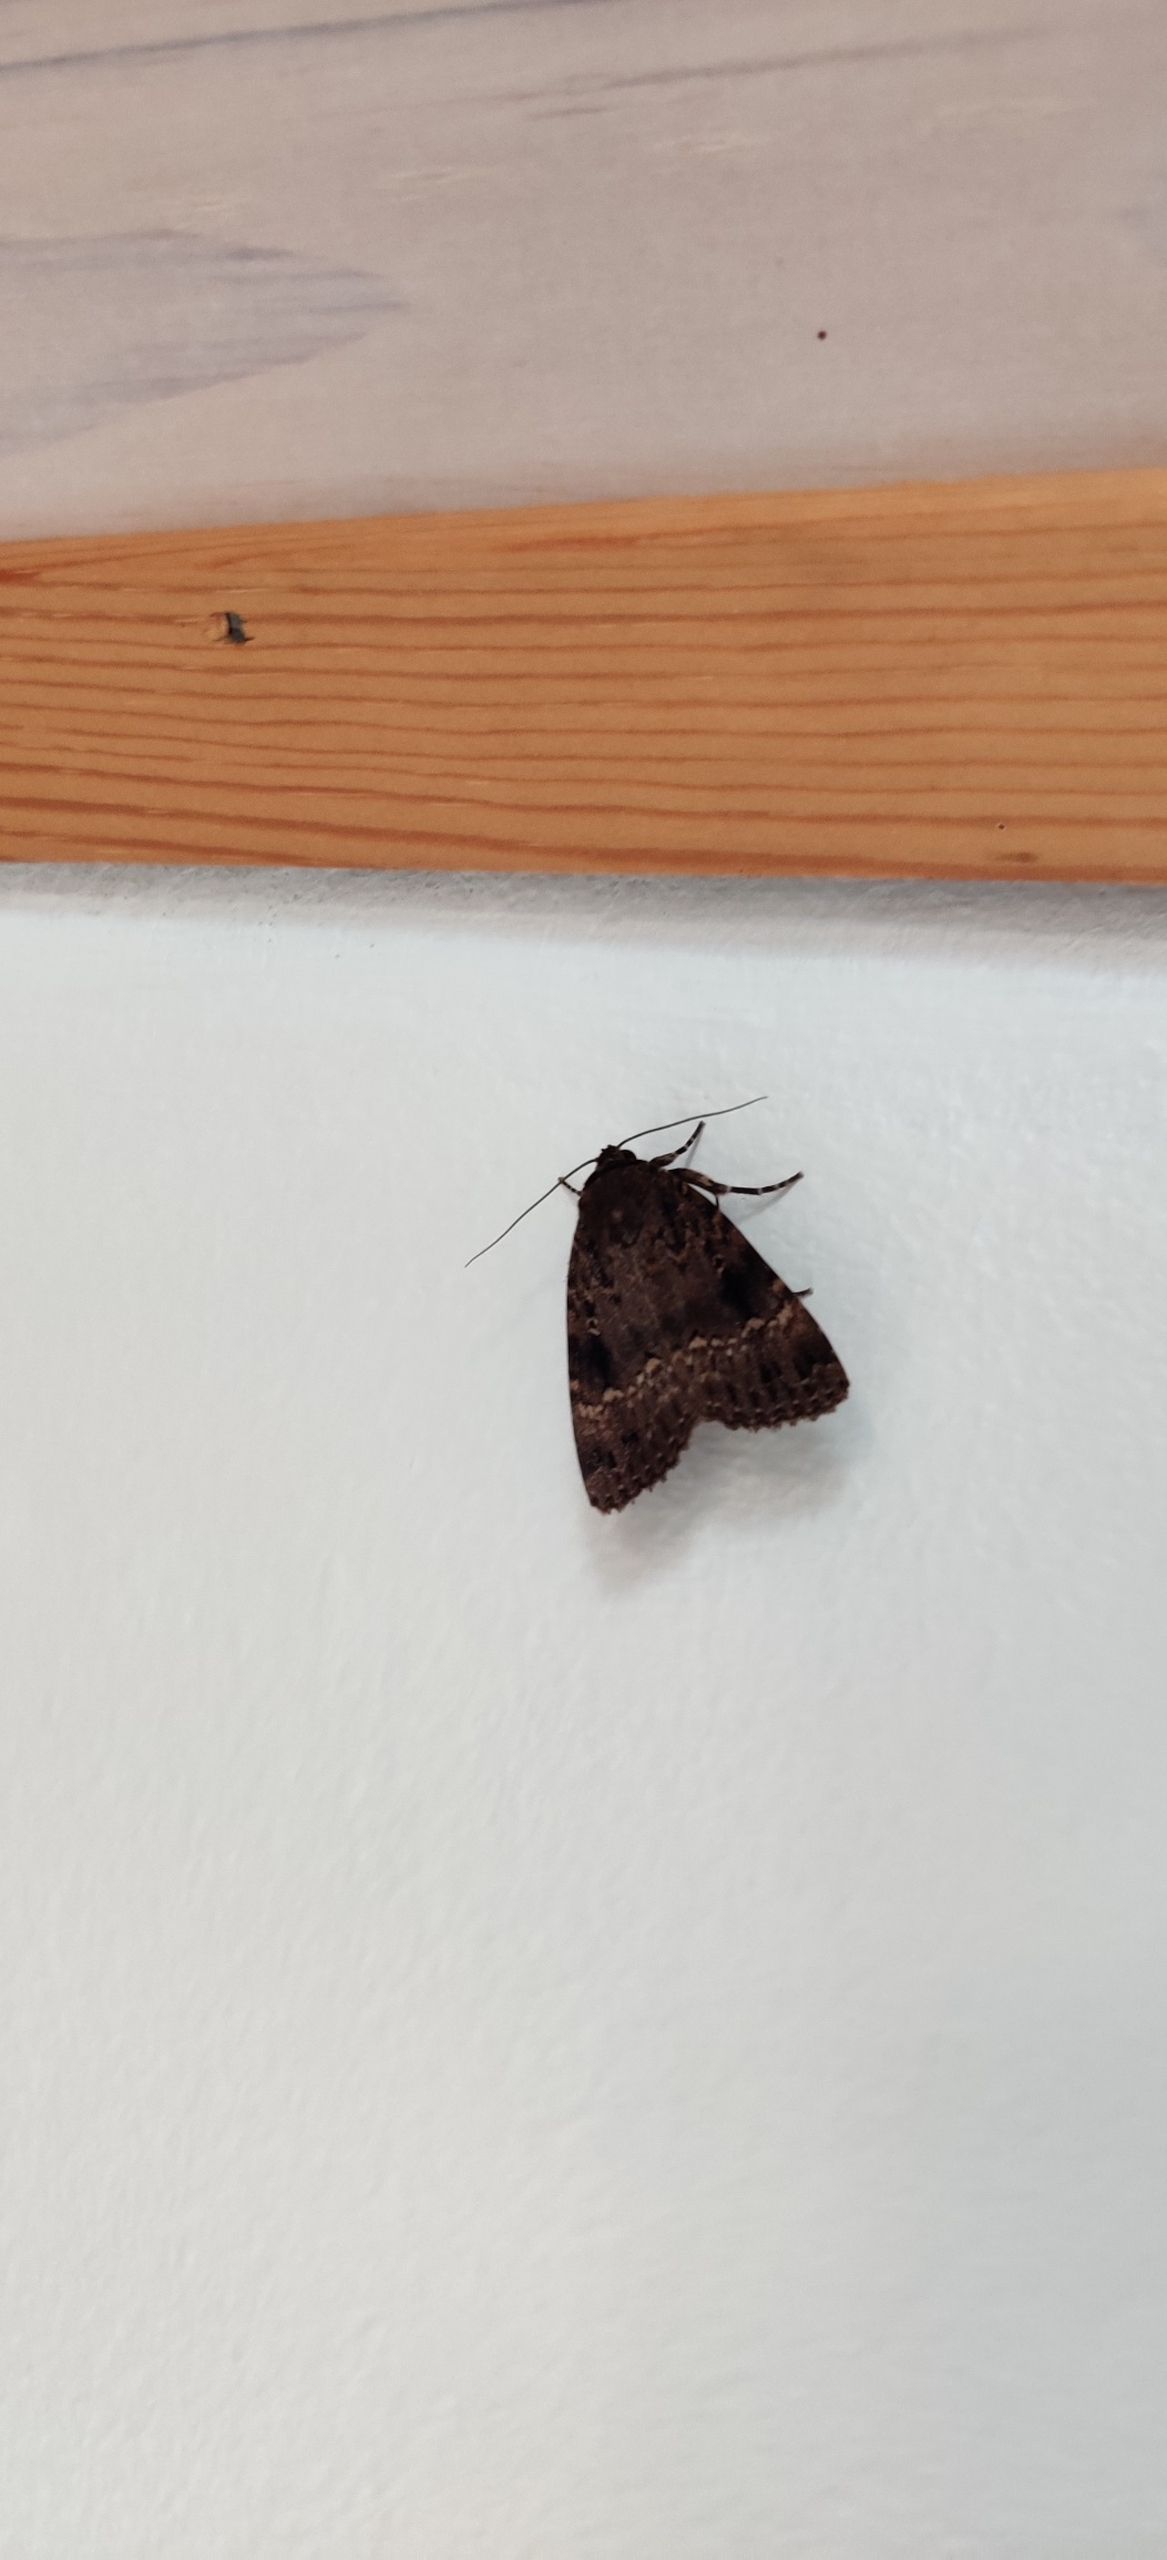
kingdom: Animalia
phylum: Arthropoda
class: Insecta
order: Lepidoptera
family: Noctuidae
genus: Amphipyra
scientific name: Amphipyra pyramidea
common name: Pyramideugle
